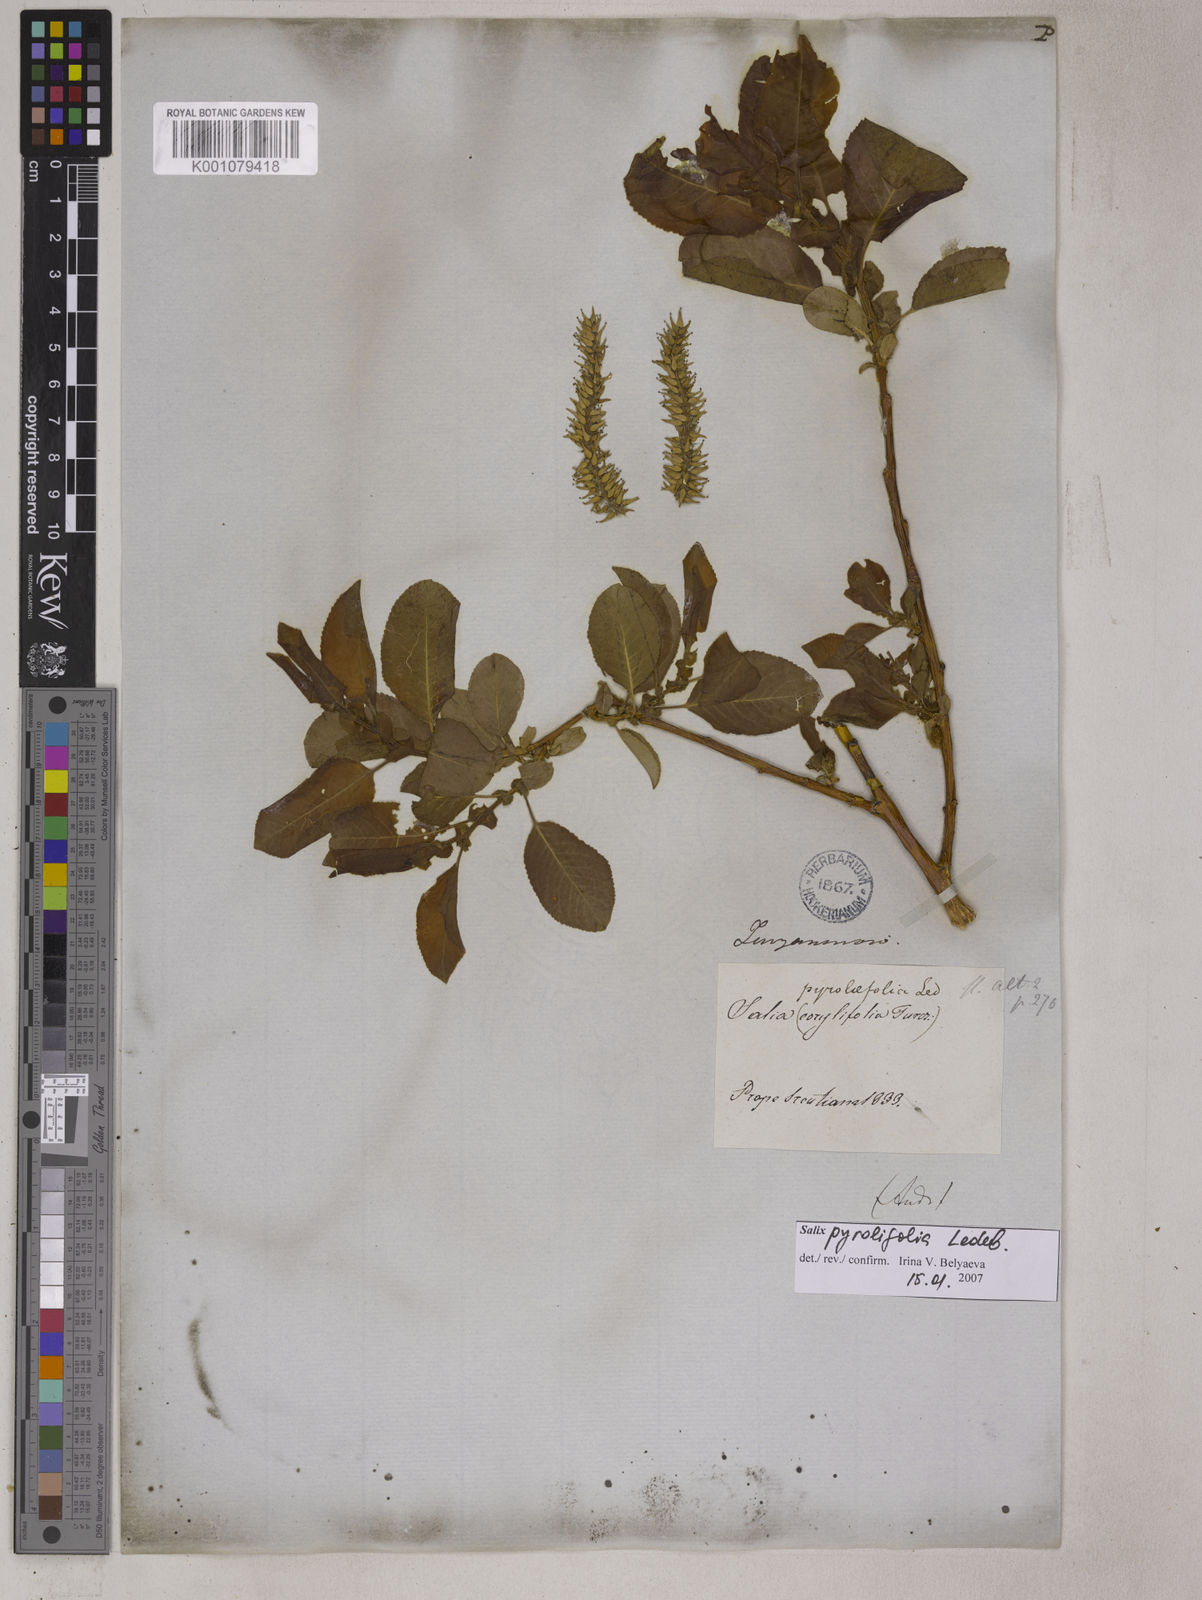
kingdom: Plantae
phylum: Tracheophyta
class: Magnoliopsida
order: Malpighiales
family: Salicaceae
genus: Salix
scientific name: Salix pyrolifolia
